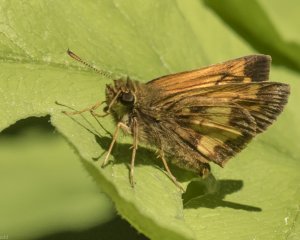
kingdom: Animalia
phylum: Arthropoda
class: Insecta
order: Lepidoptera
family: Hesperiidae
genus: Lon
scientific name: Lon hobomok
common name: Hobomok Skipper
